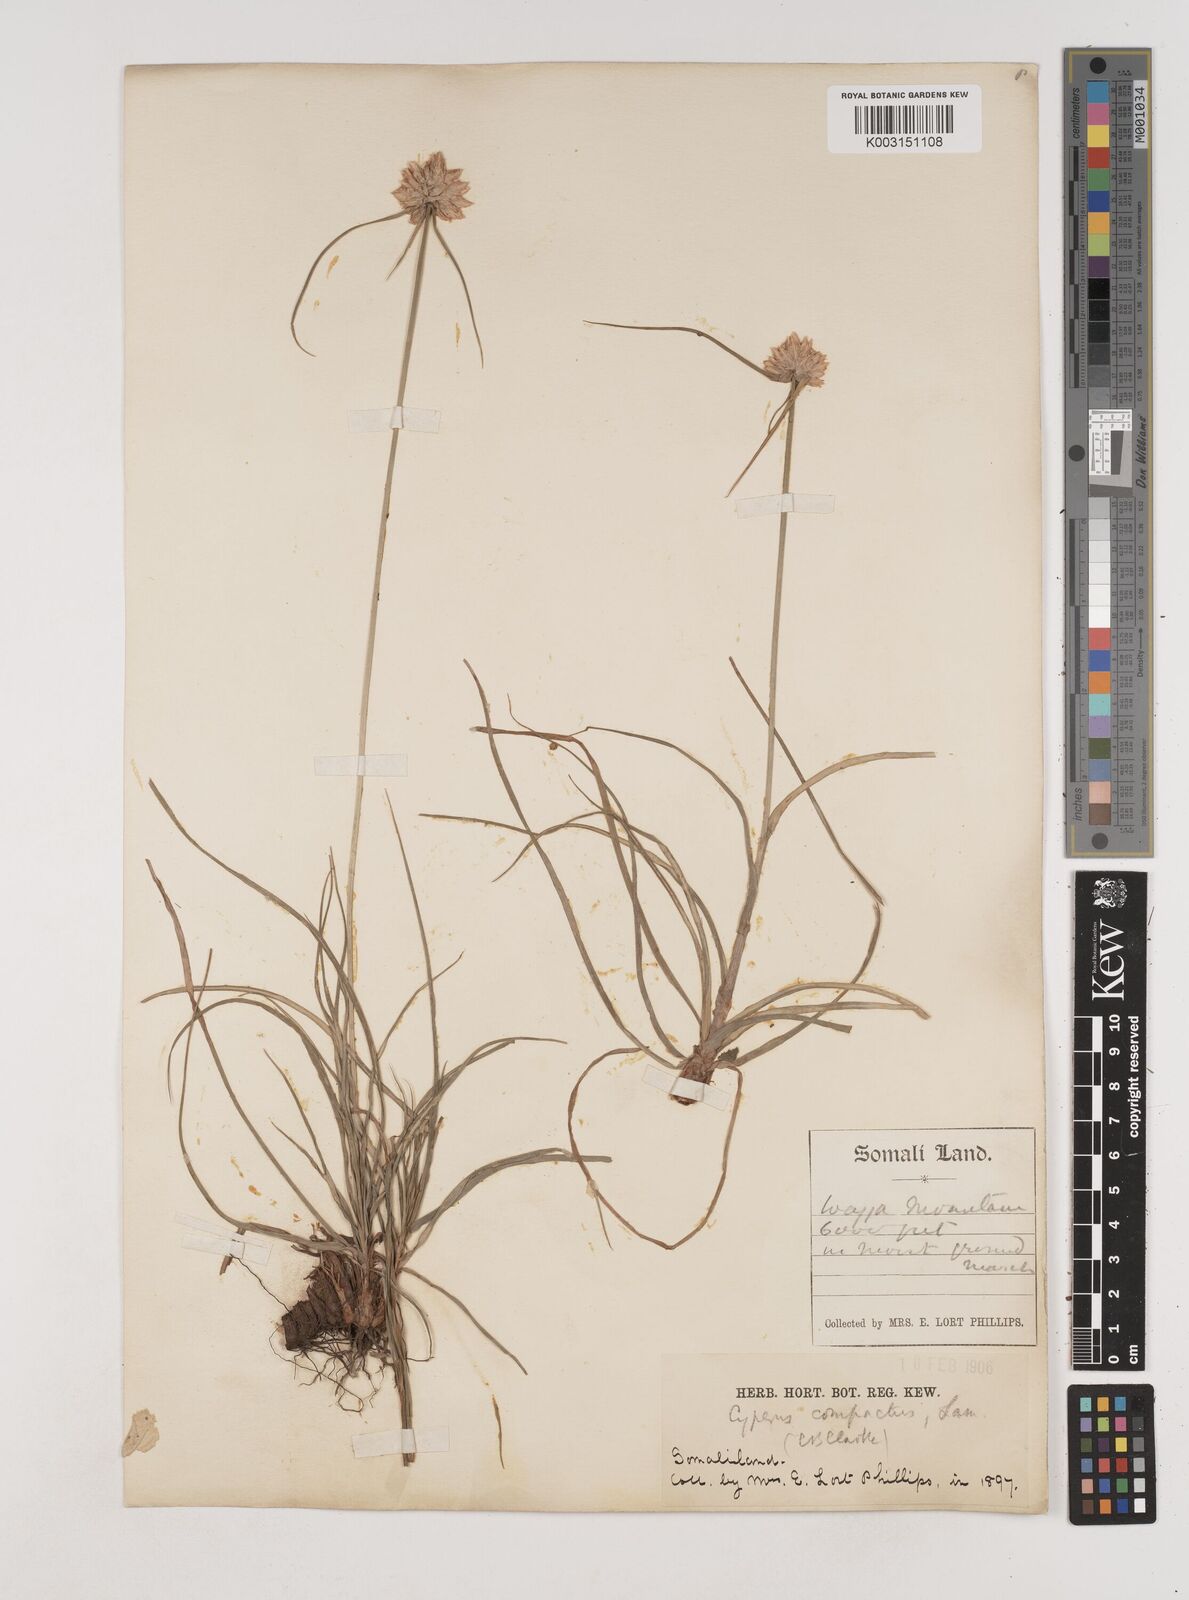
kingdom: Plantae
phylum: Tracheophyta
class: Liliopsida
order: Poales
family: Cyperaceae
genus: Cyperus
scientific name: Cyperus niveus
